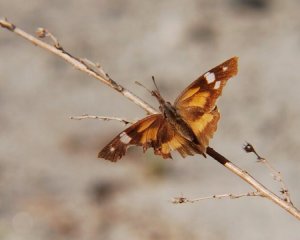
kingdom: Animalia
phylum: Arthropoda
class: Insecta
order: Lepidoptera
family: Nymphalidae
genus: Libytheana
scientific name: Libytheana carinenta
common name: American Snout
